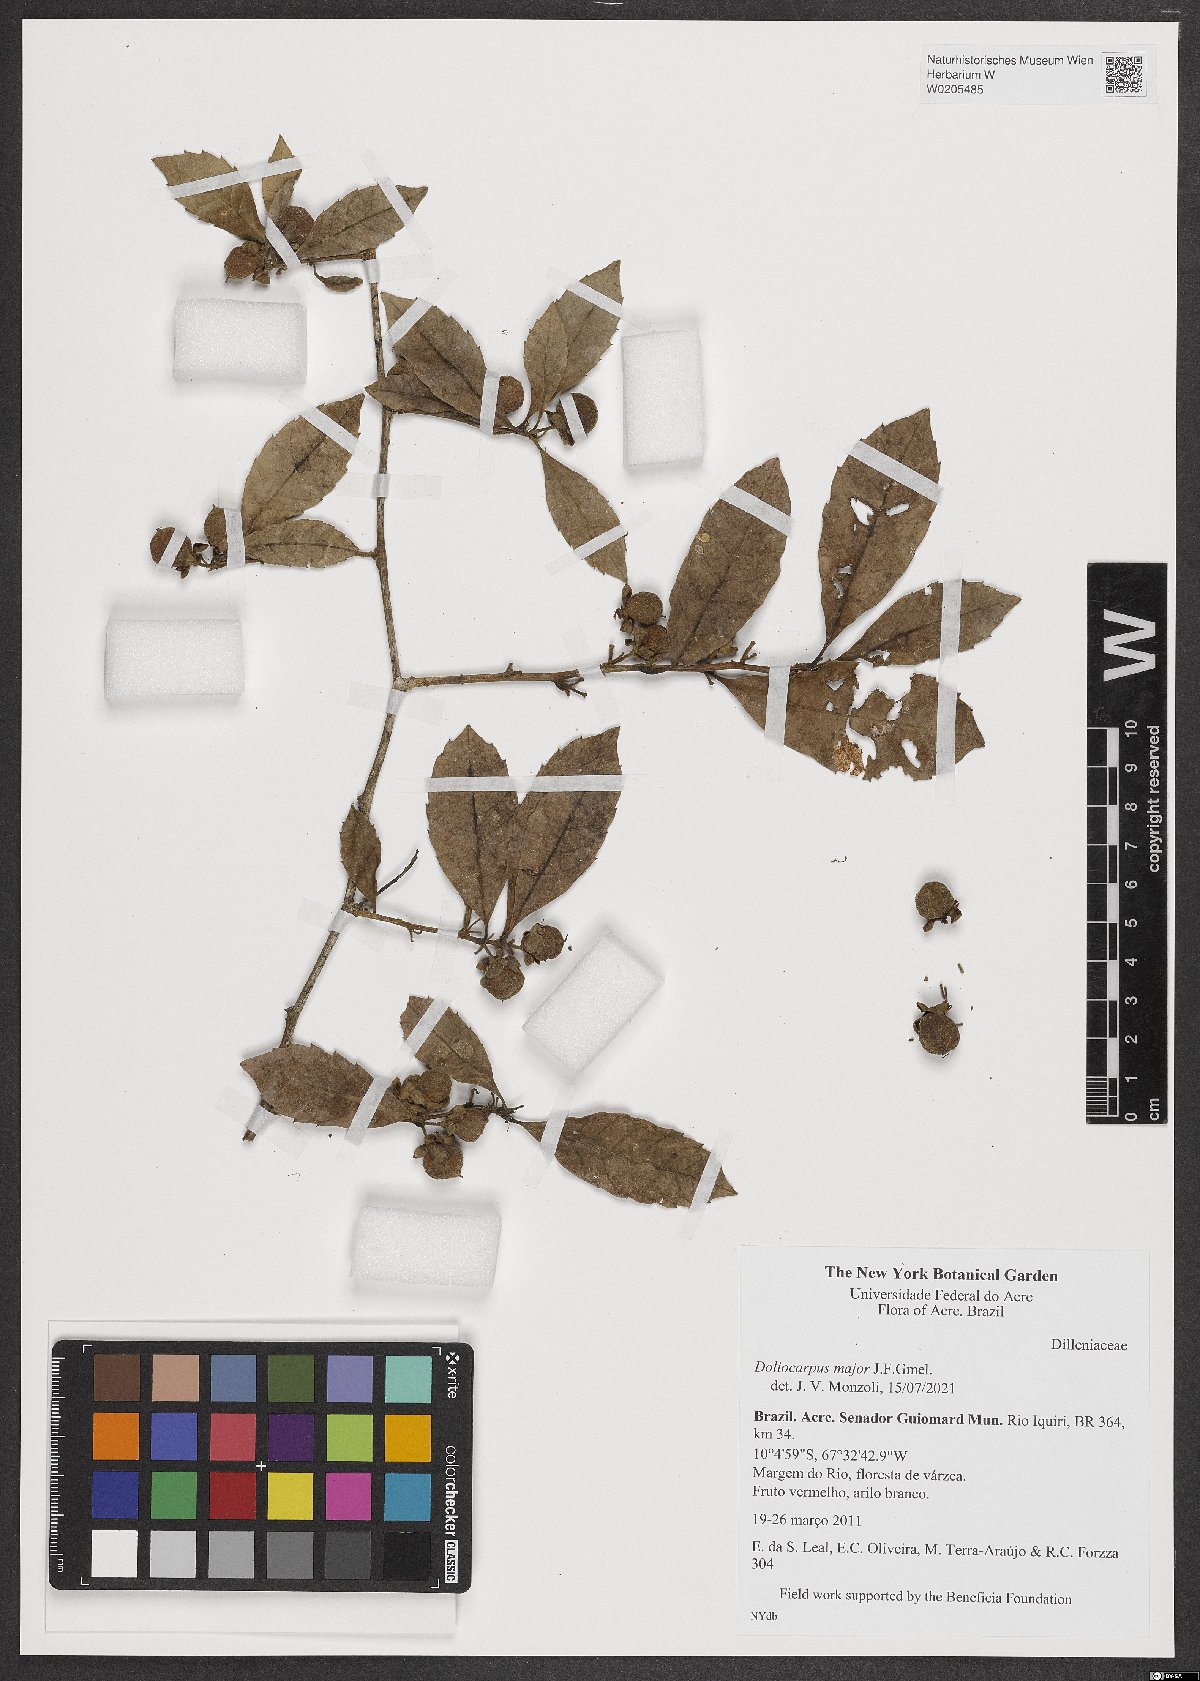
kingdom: Plantae
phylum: Tracheophyta
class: Magnoliopsida
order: Dilleniales
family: Dilleniaceae
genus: Doliocarpus
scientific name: Doliocarpus major
